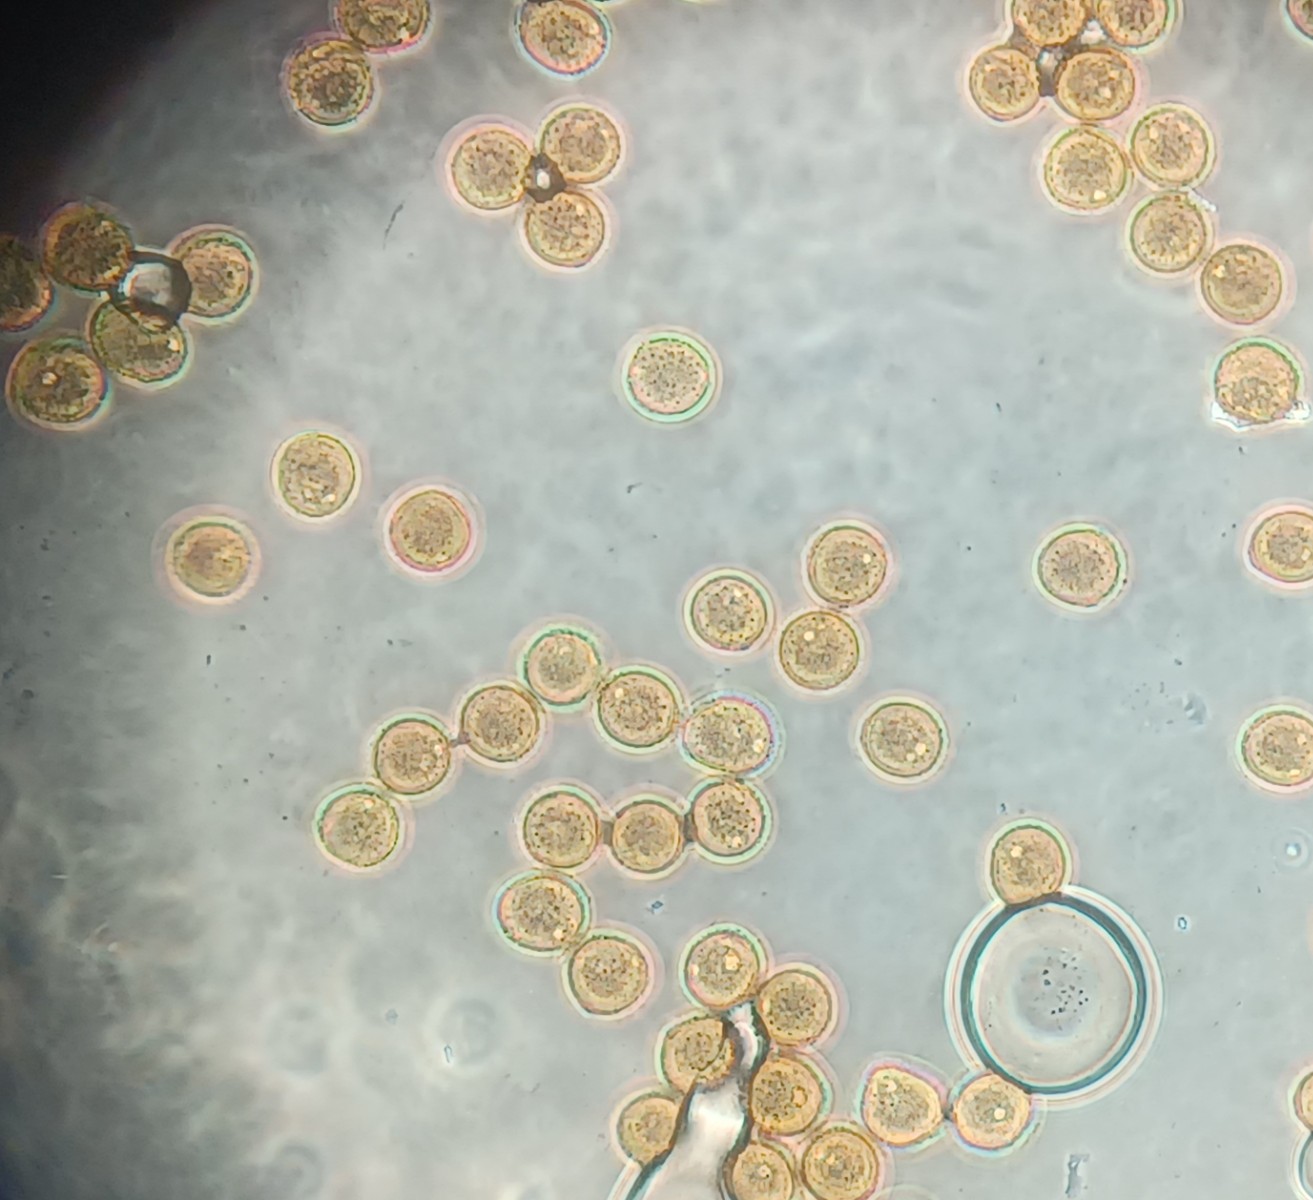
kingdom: Fungi
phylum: Basidiomycota
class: Pucciniomycetes
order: Pucciniales
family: Pucciniaceae
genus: Uromyces
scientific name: Uromyces
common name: encellerust
